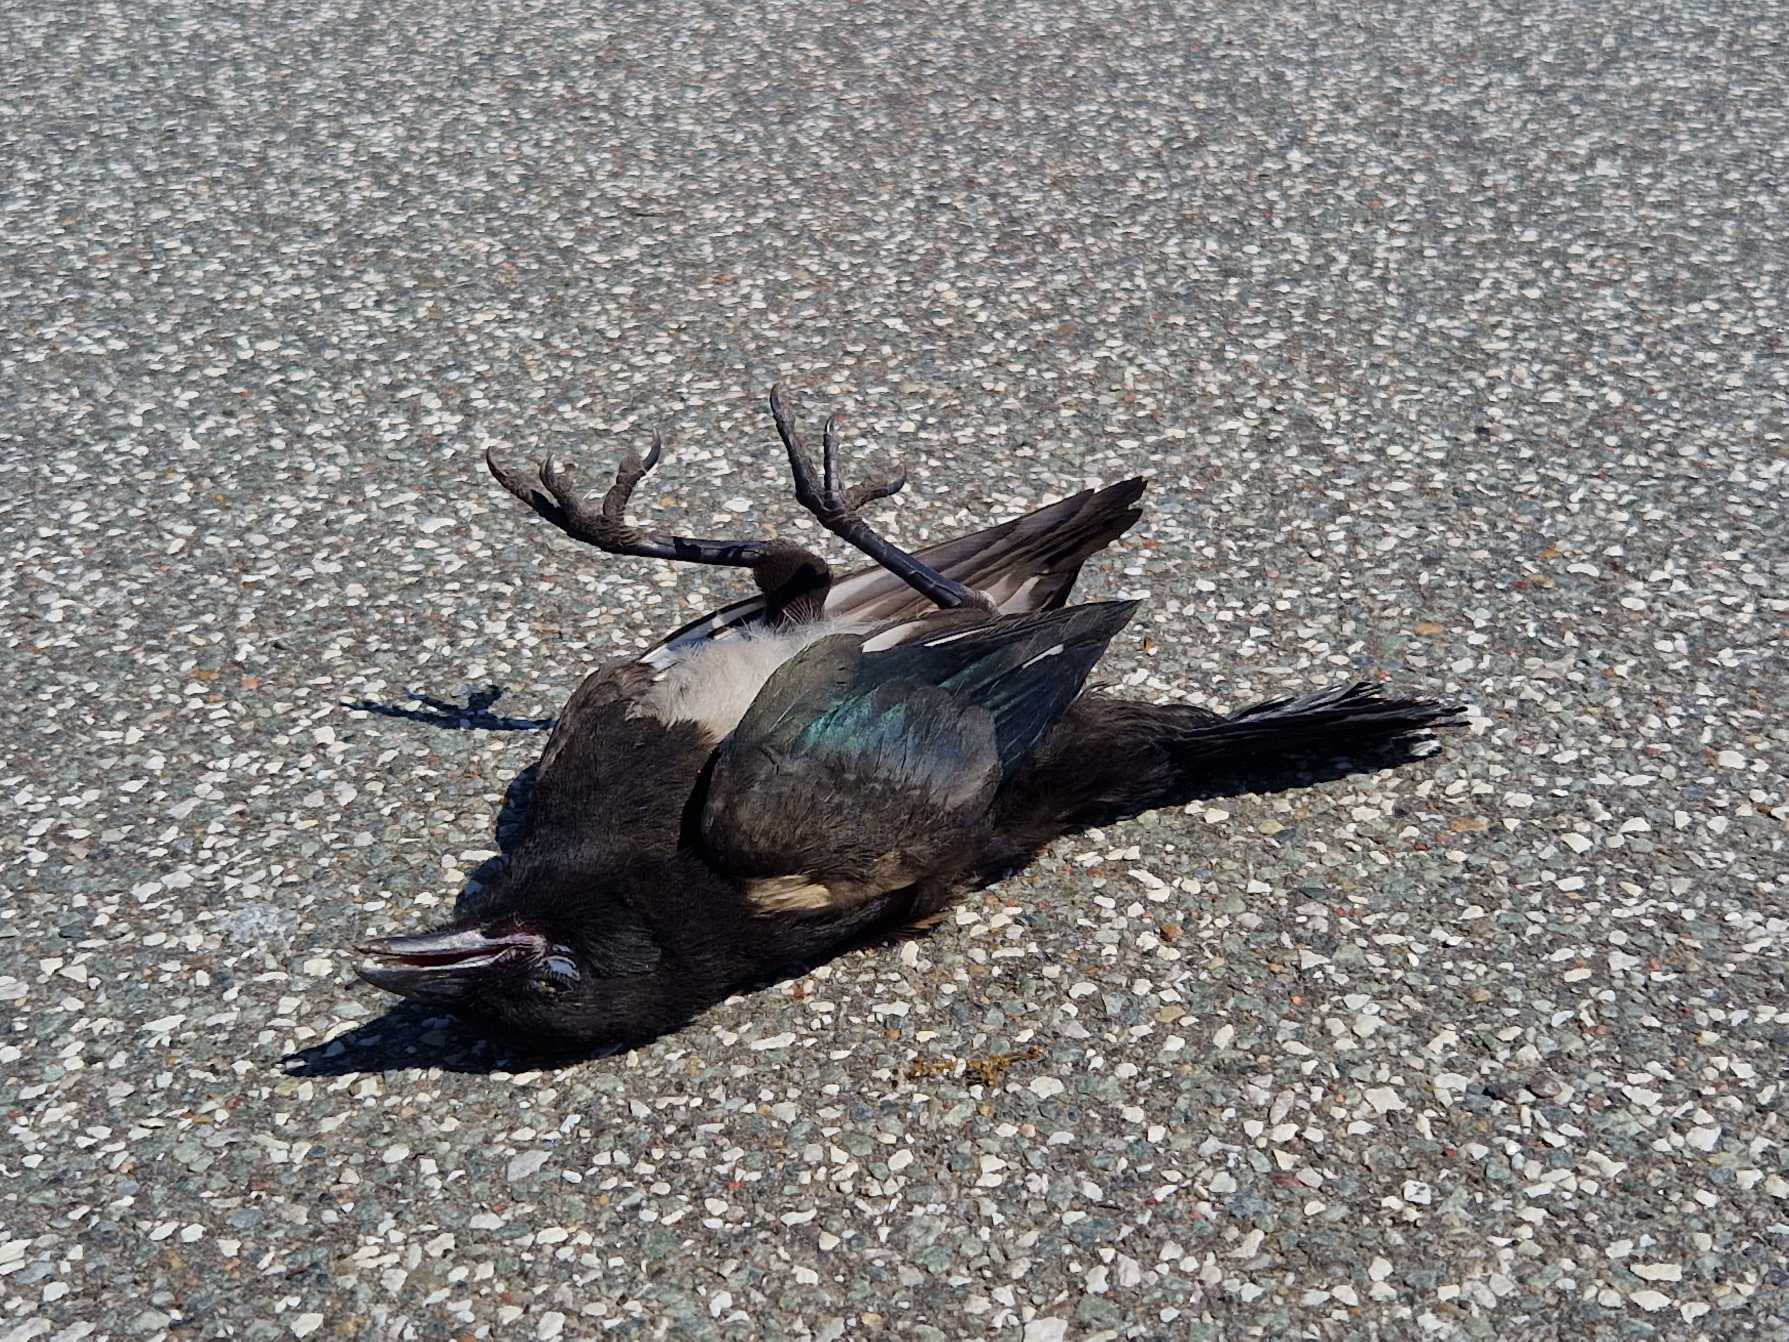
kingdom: Animalia
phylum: Chordata
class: Aves
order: Passeriformes
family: Corvidae
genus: Pica
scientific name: Pica pica
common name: Husskade
